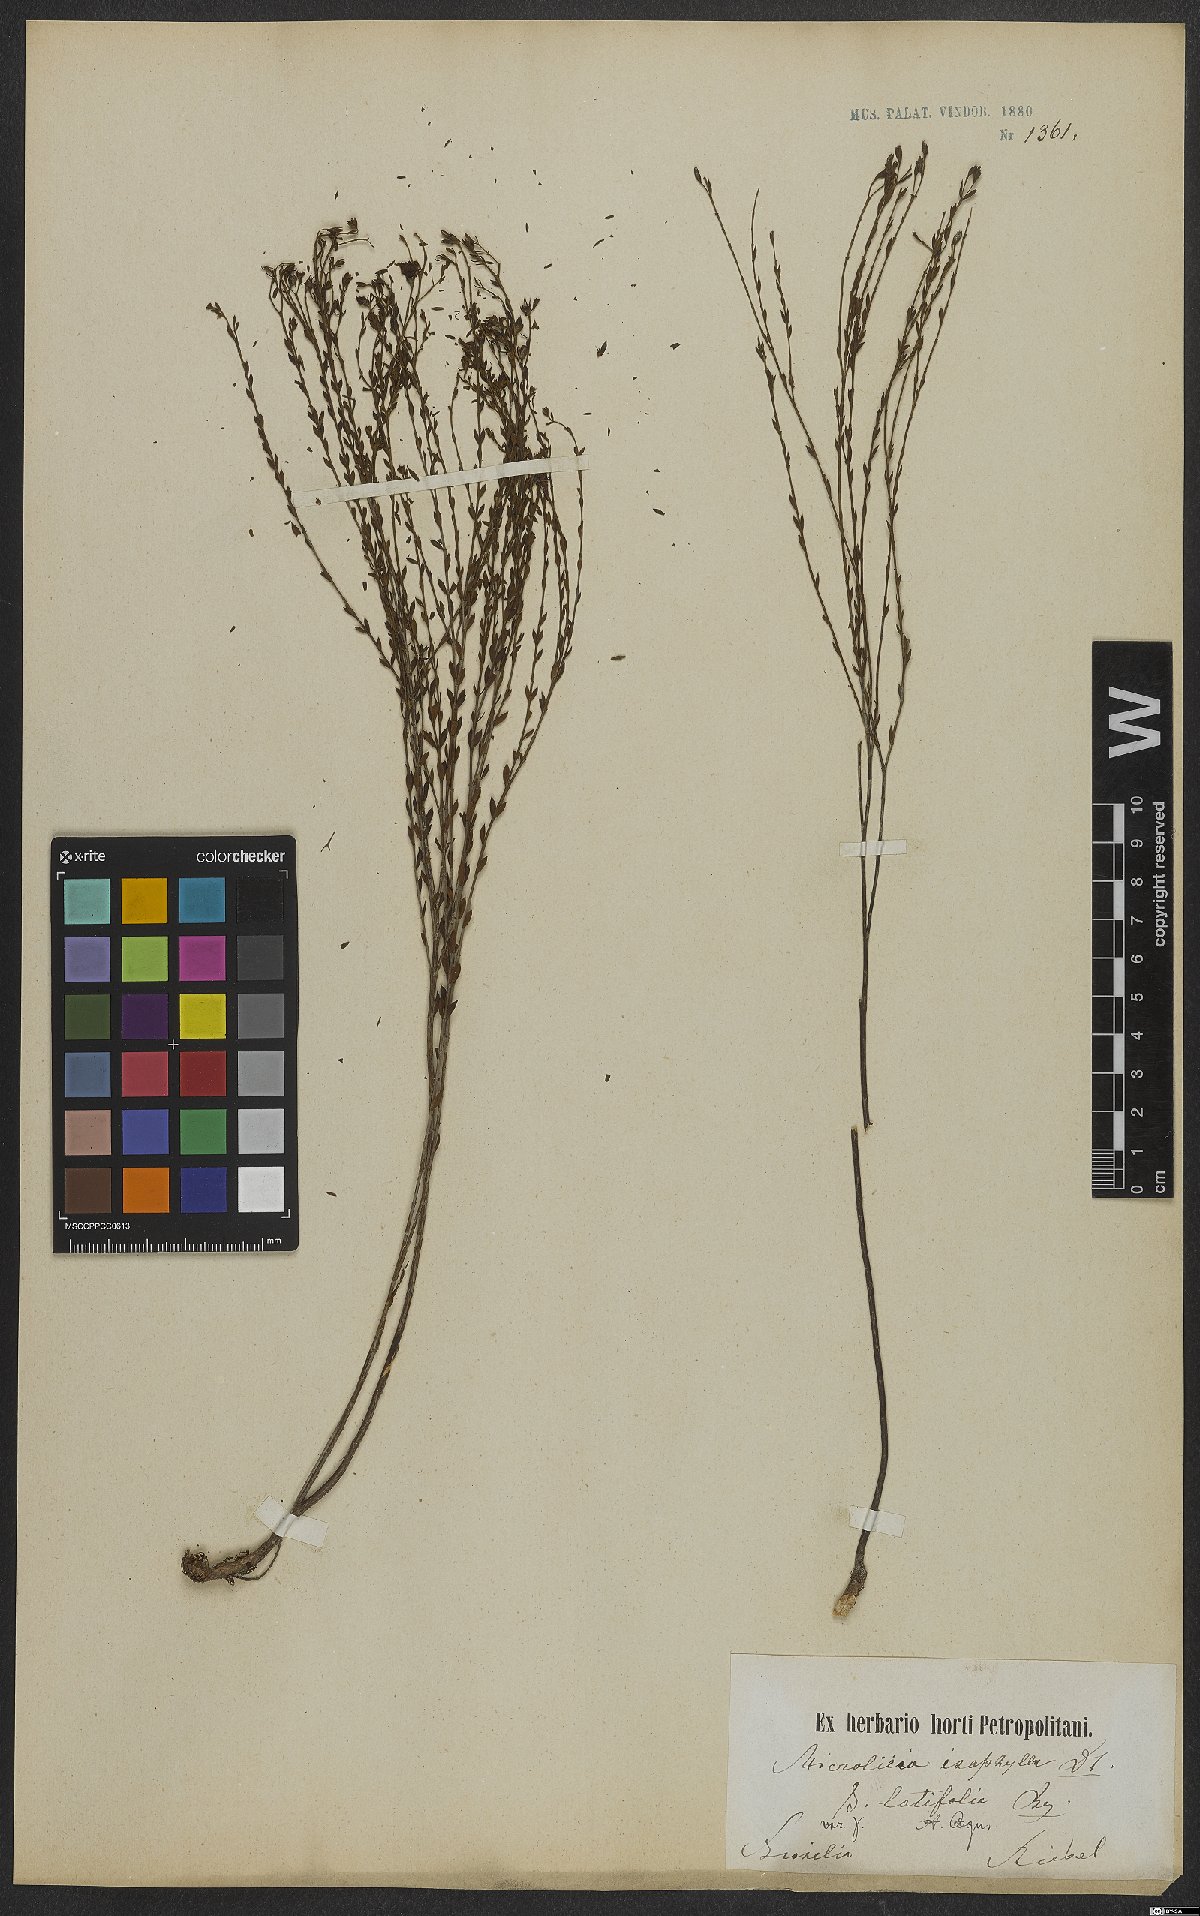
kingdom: Plantae
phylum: Tracheophyta
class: Magnoliopsida
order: Myrtales
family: Melastomataceae
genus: Microlicia
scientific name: Microlicia isophylla
